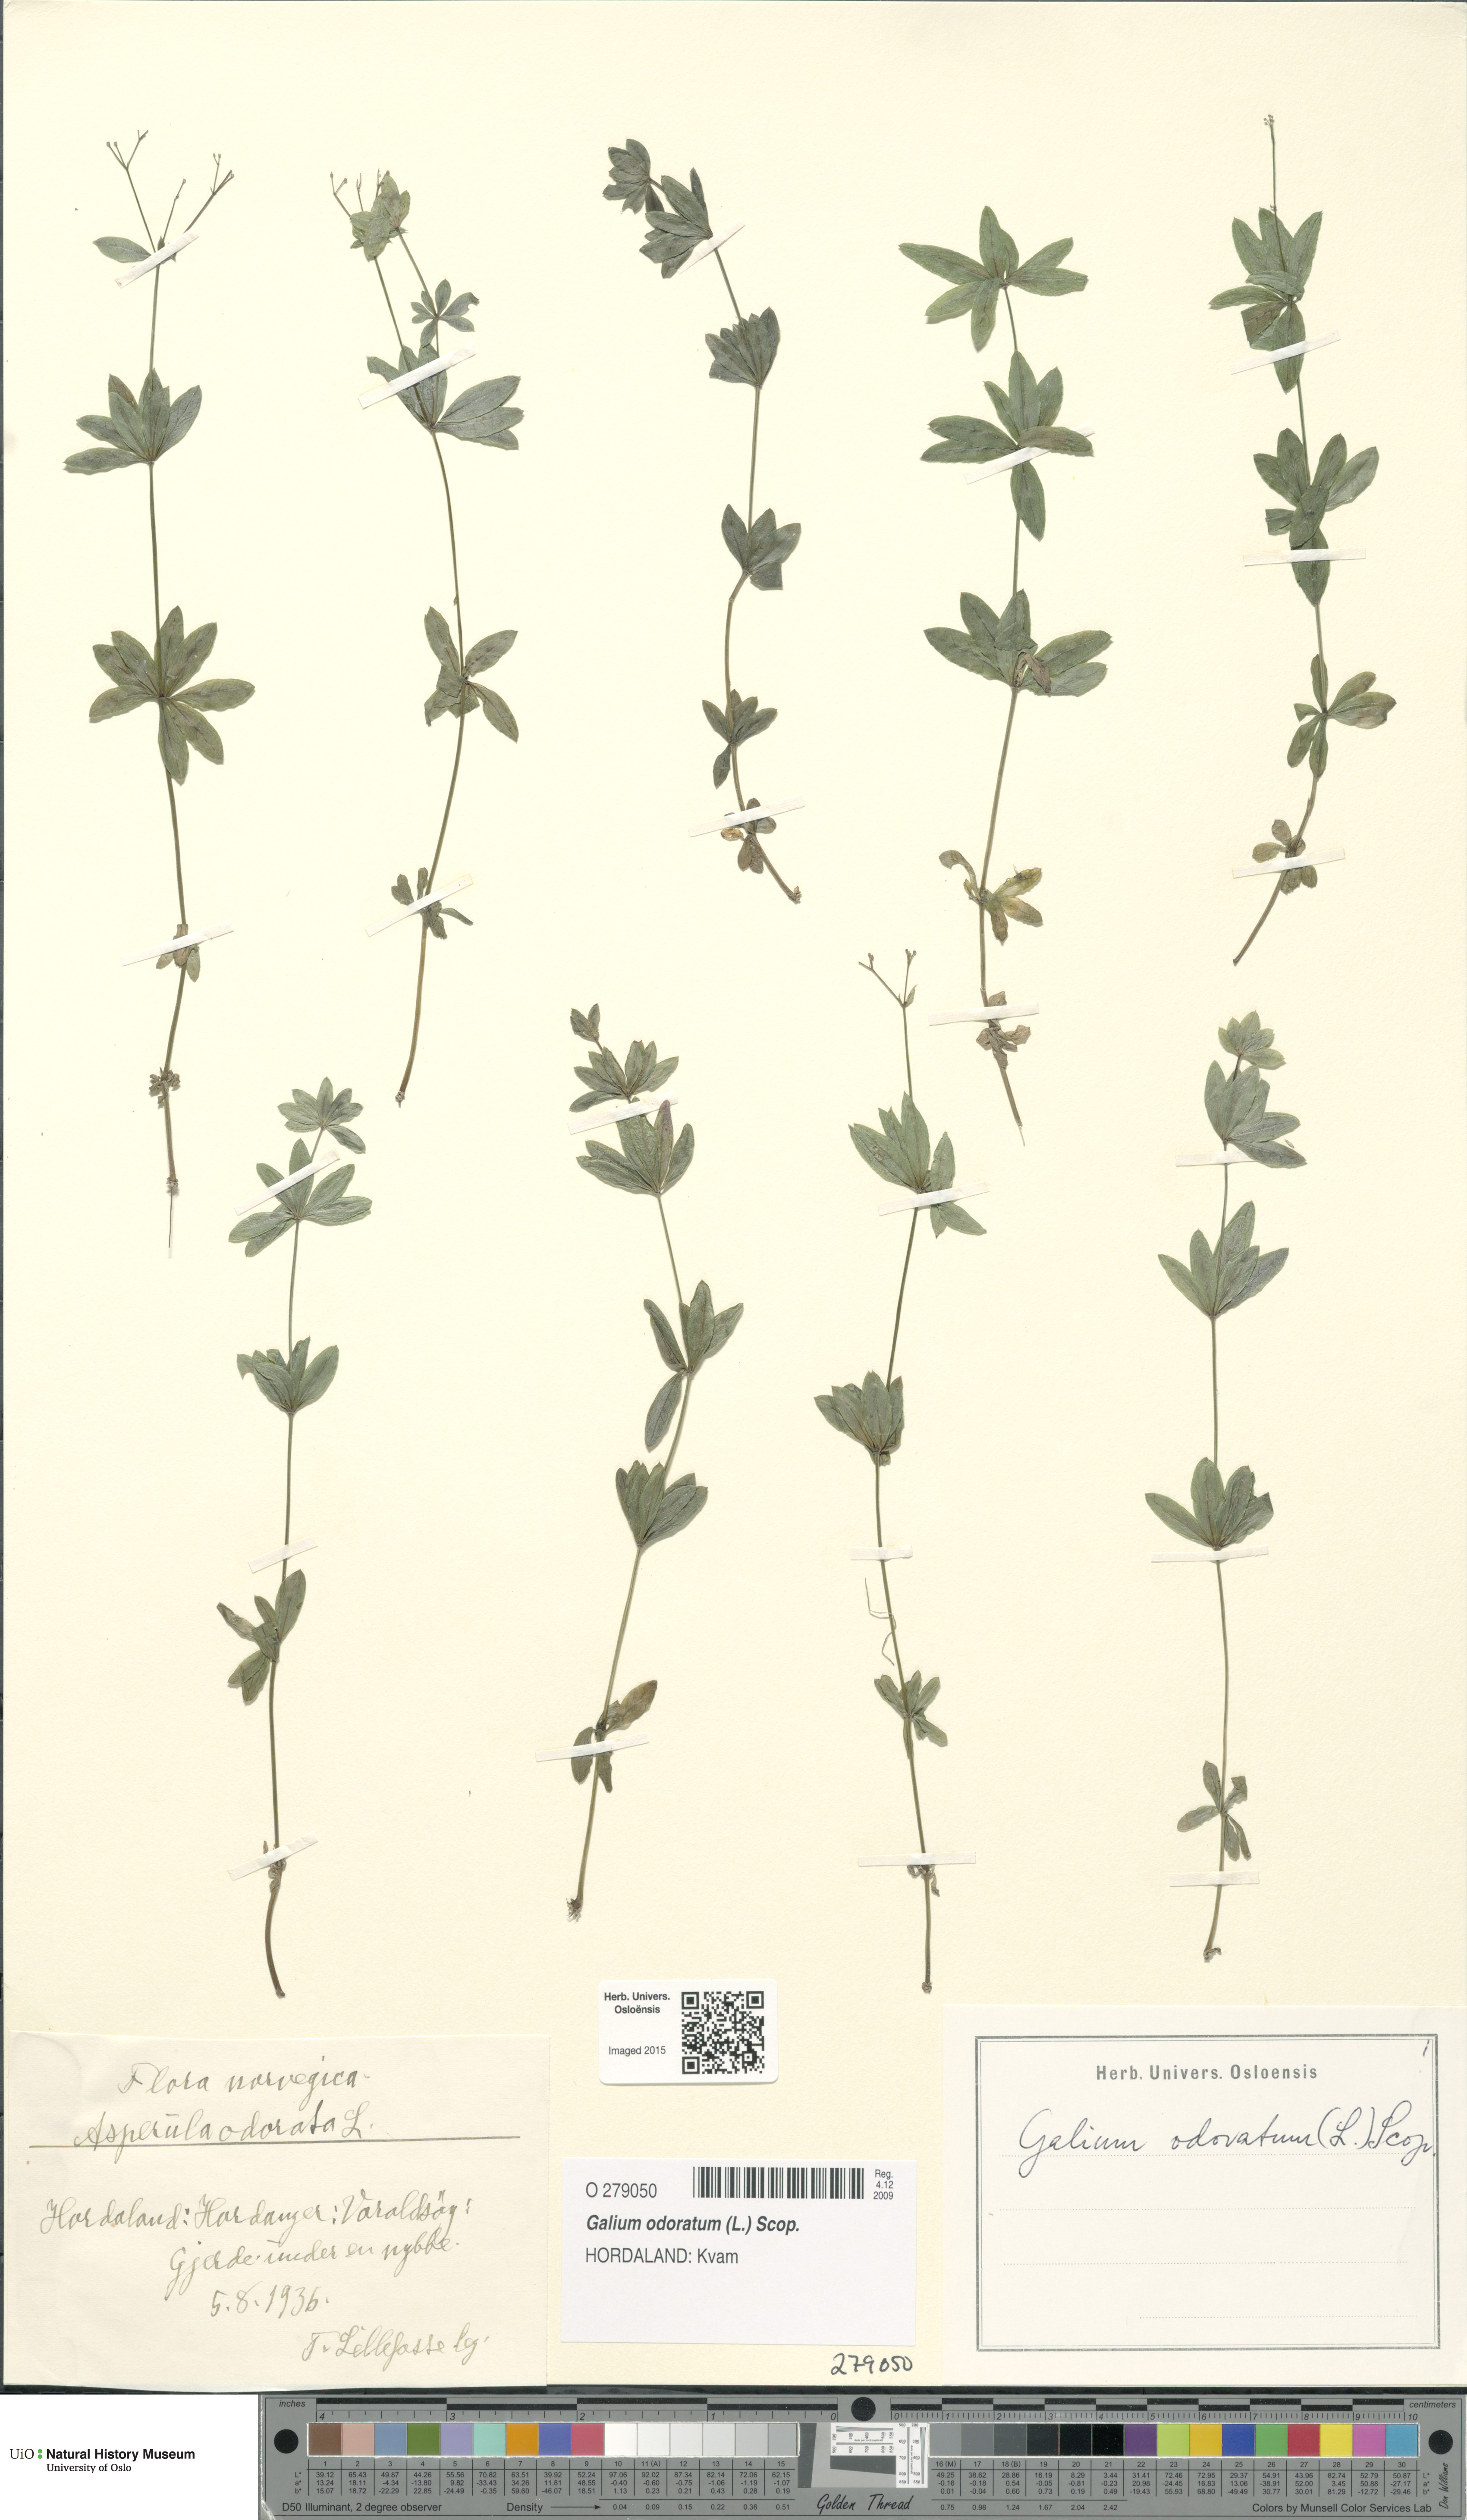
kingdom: Plantae
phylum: Tracheophyta
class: Magnoliopsida
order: Gentianales
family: Rubiaceae
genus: Galium
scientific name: Galium odoratum
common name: Sweet woodruff
